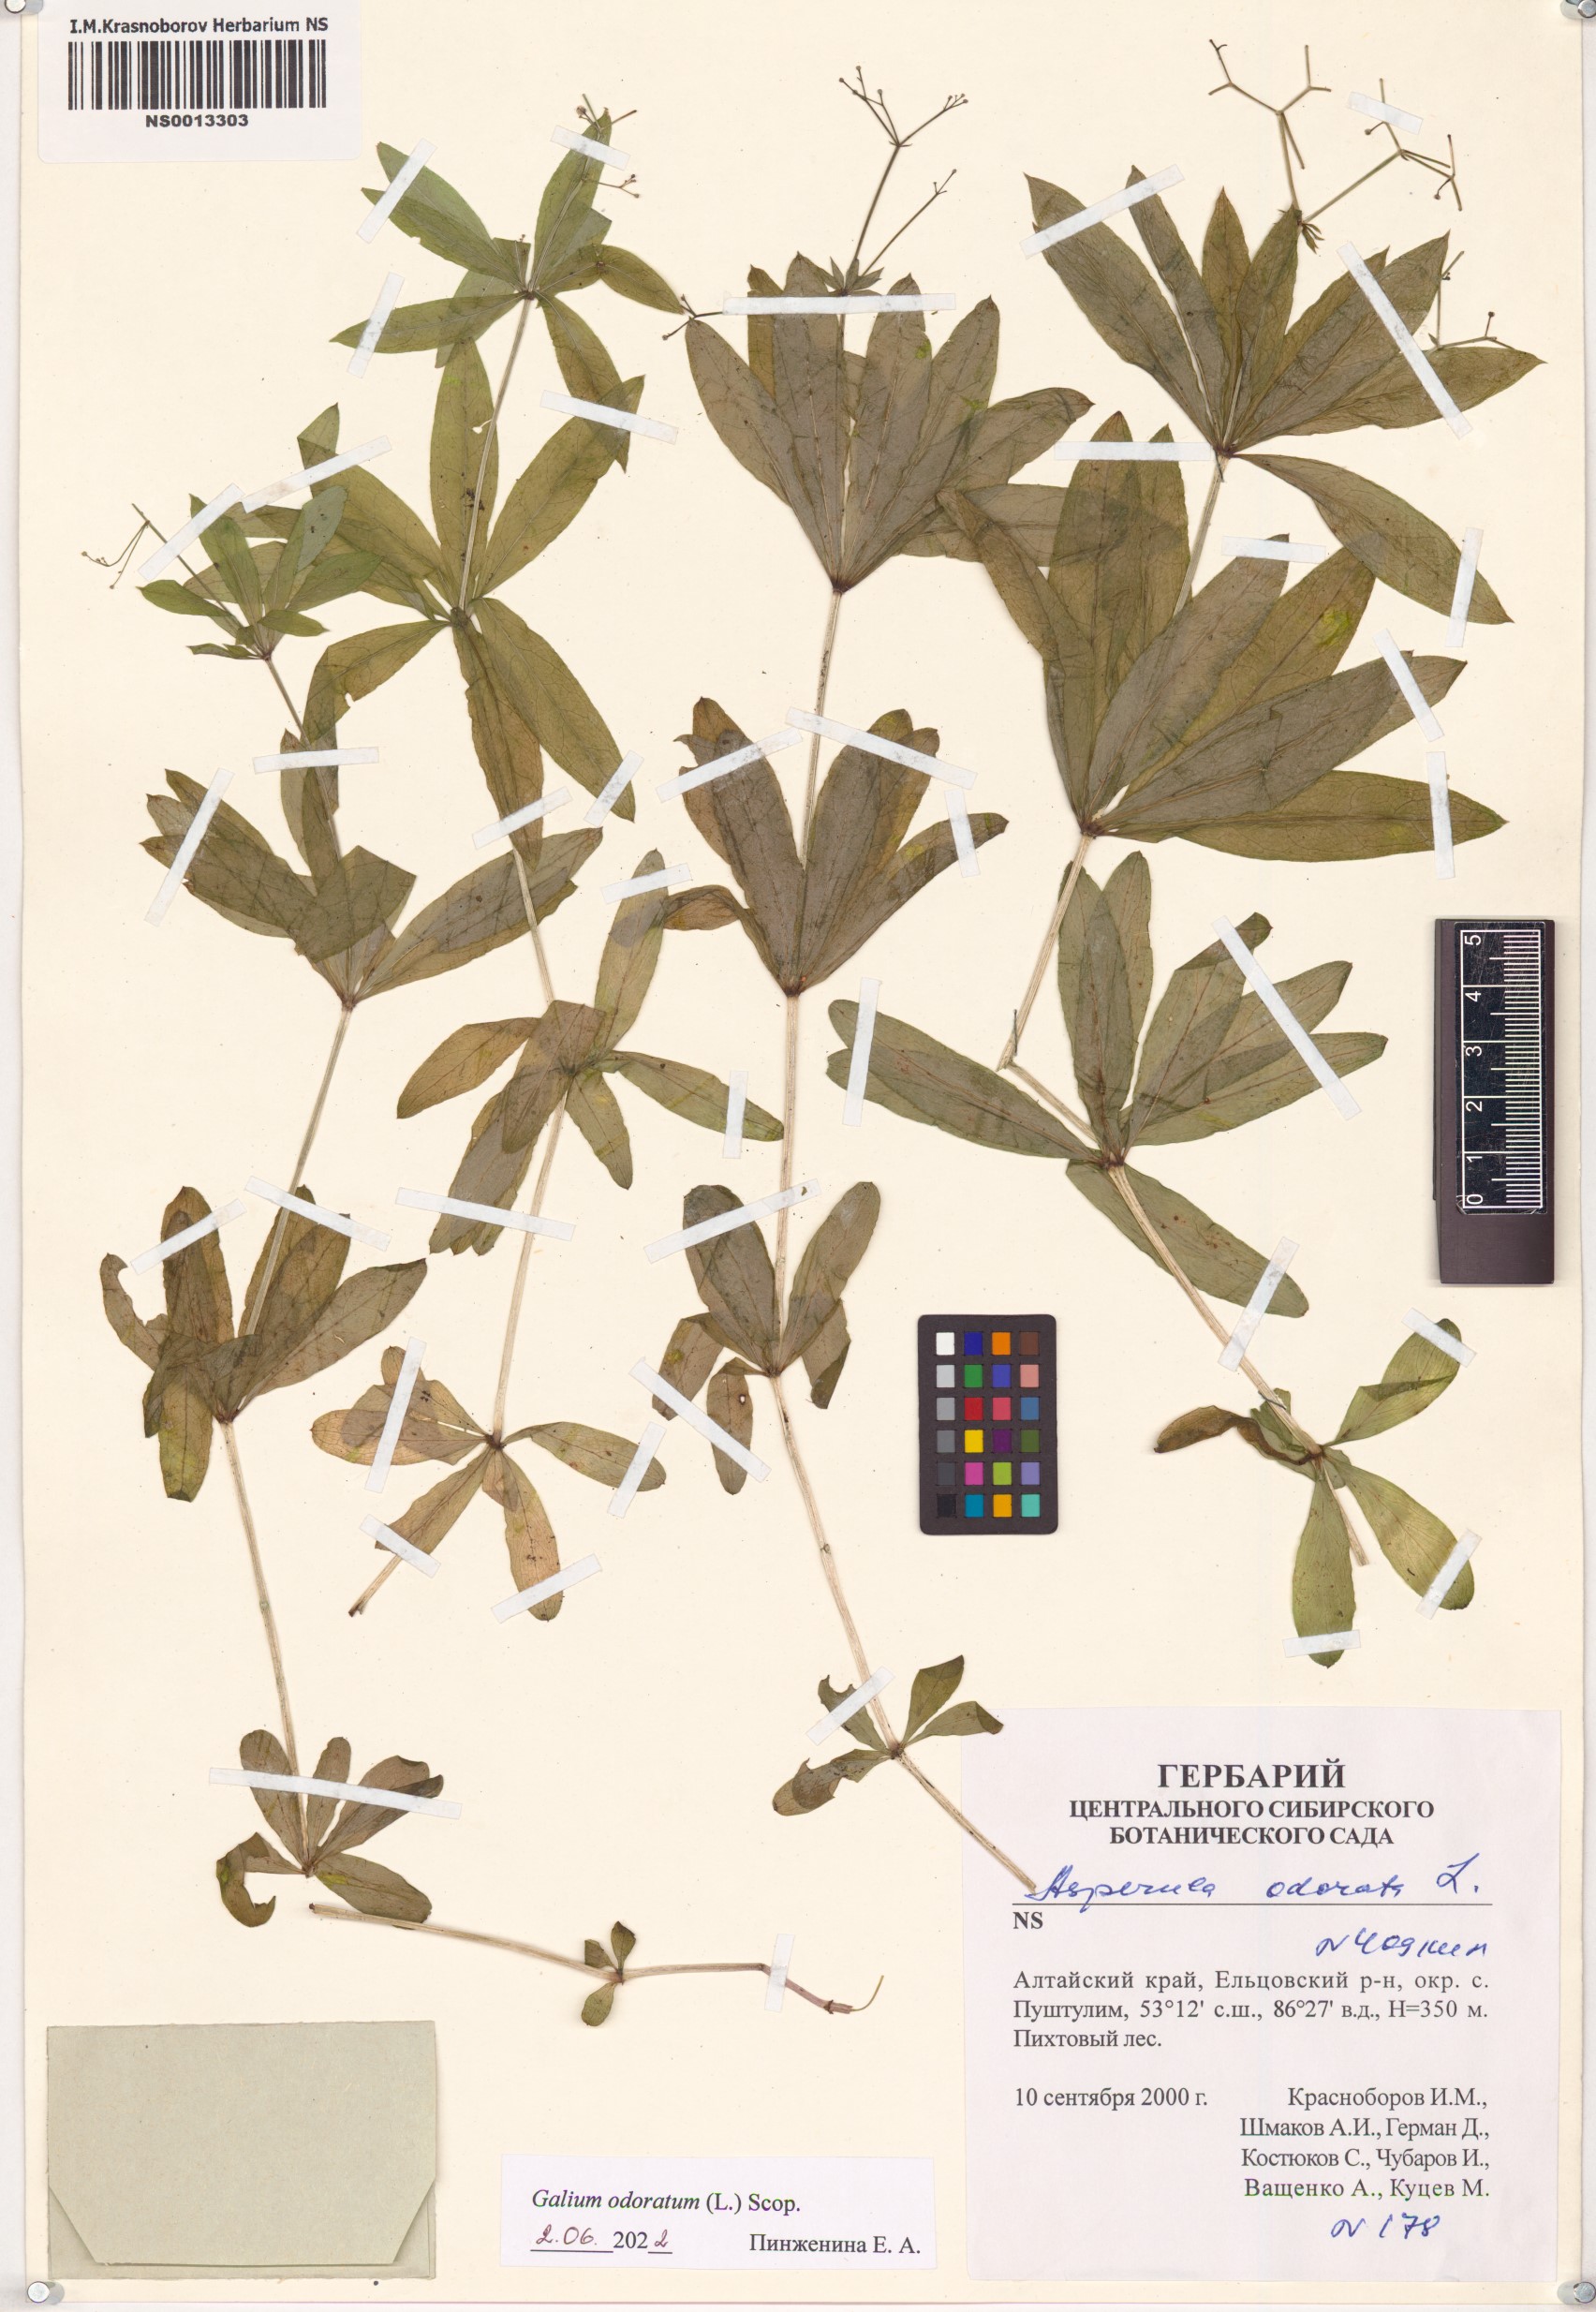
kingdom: Plantae
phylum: Tracheophyta
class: Magnoliopsida
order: Gentianales
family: Rubiaceae
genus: Galium
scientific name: Galium odoratum
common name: Sweet woodruff
